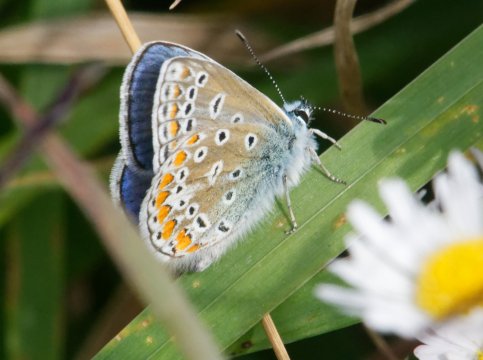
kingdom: Animalia
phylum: Arthropoda
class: Insecta
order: Lepidoptera
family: Lycaenidae
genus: Polyommatus
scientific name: Polyommatus icarus
